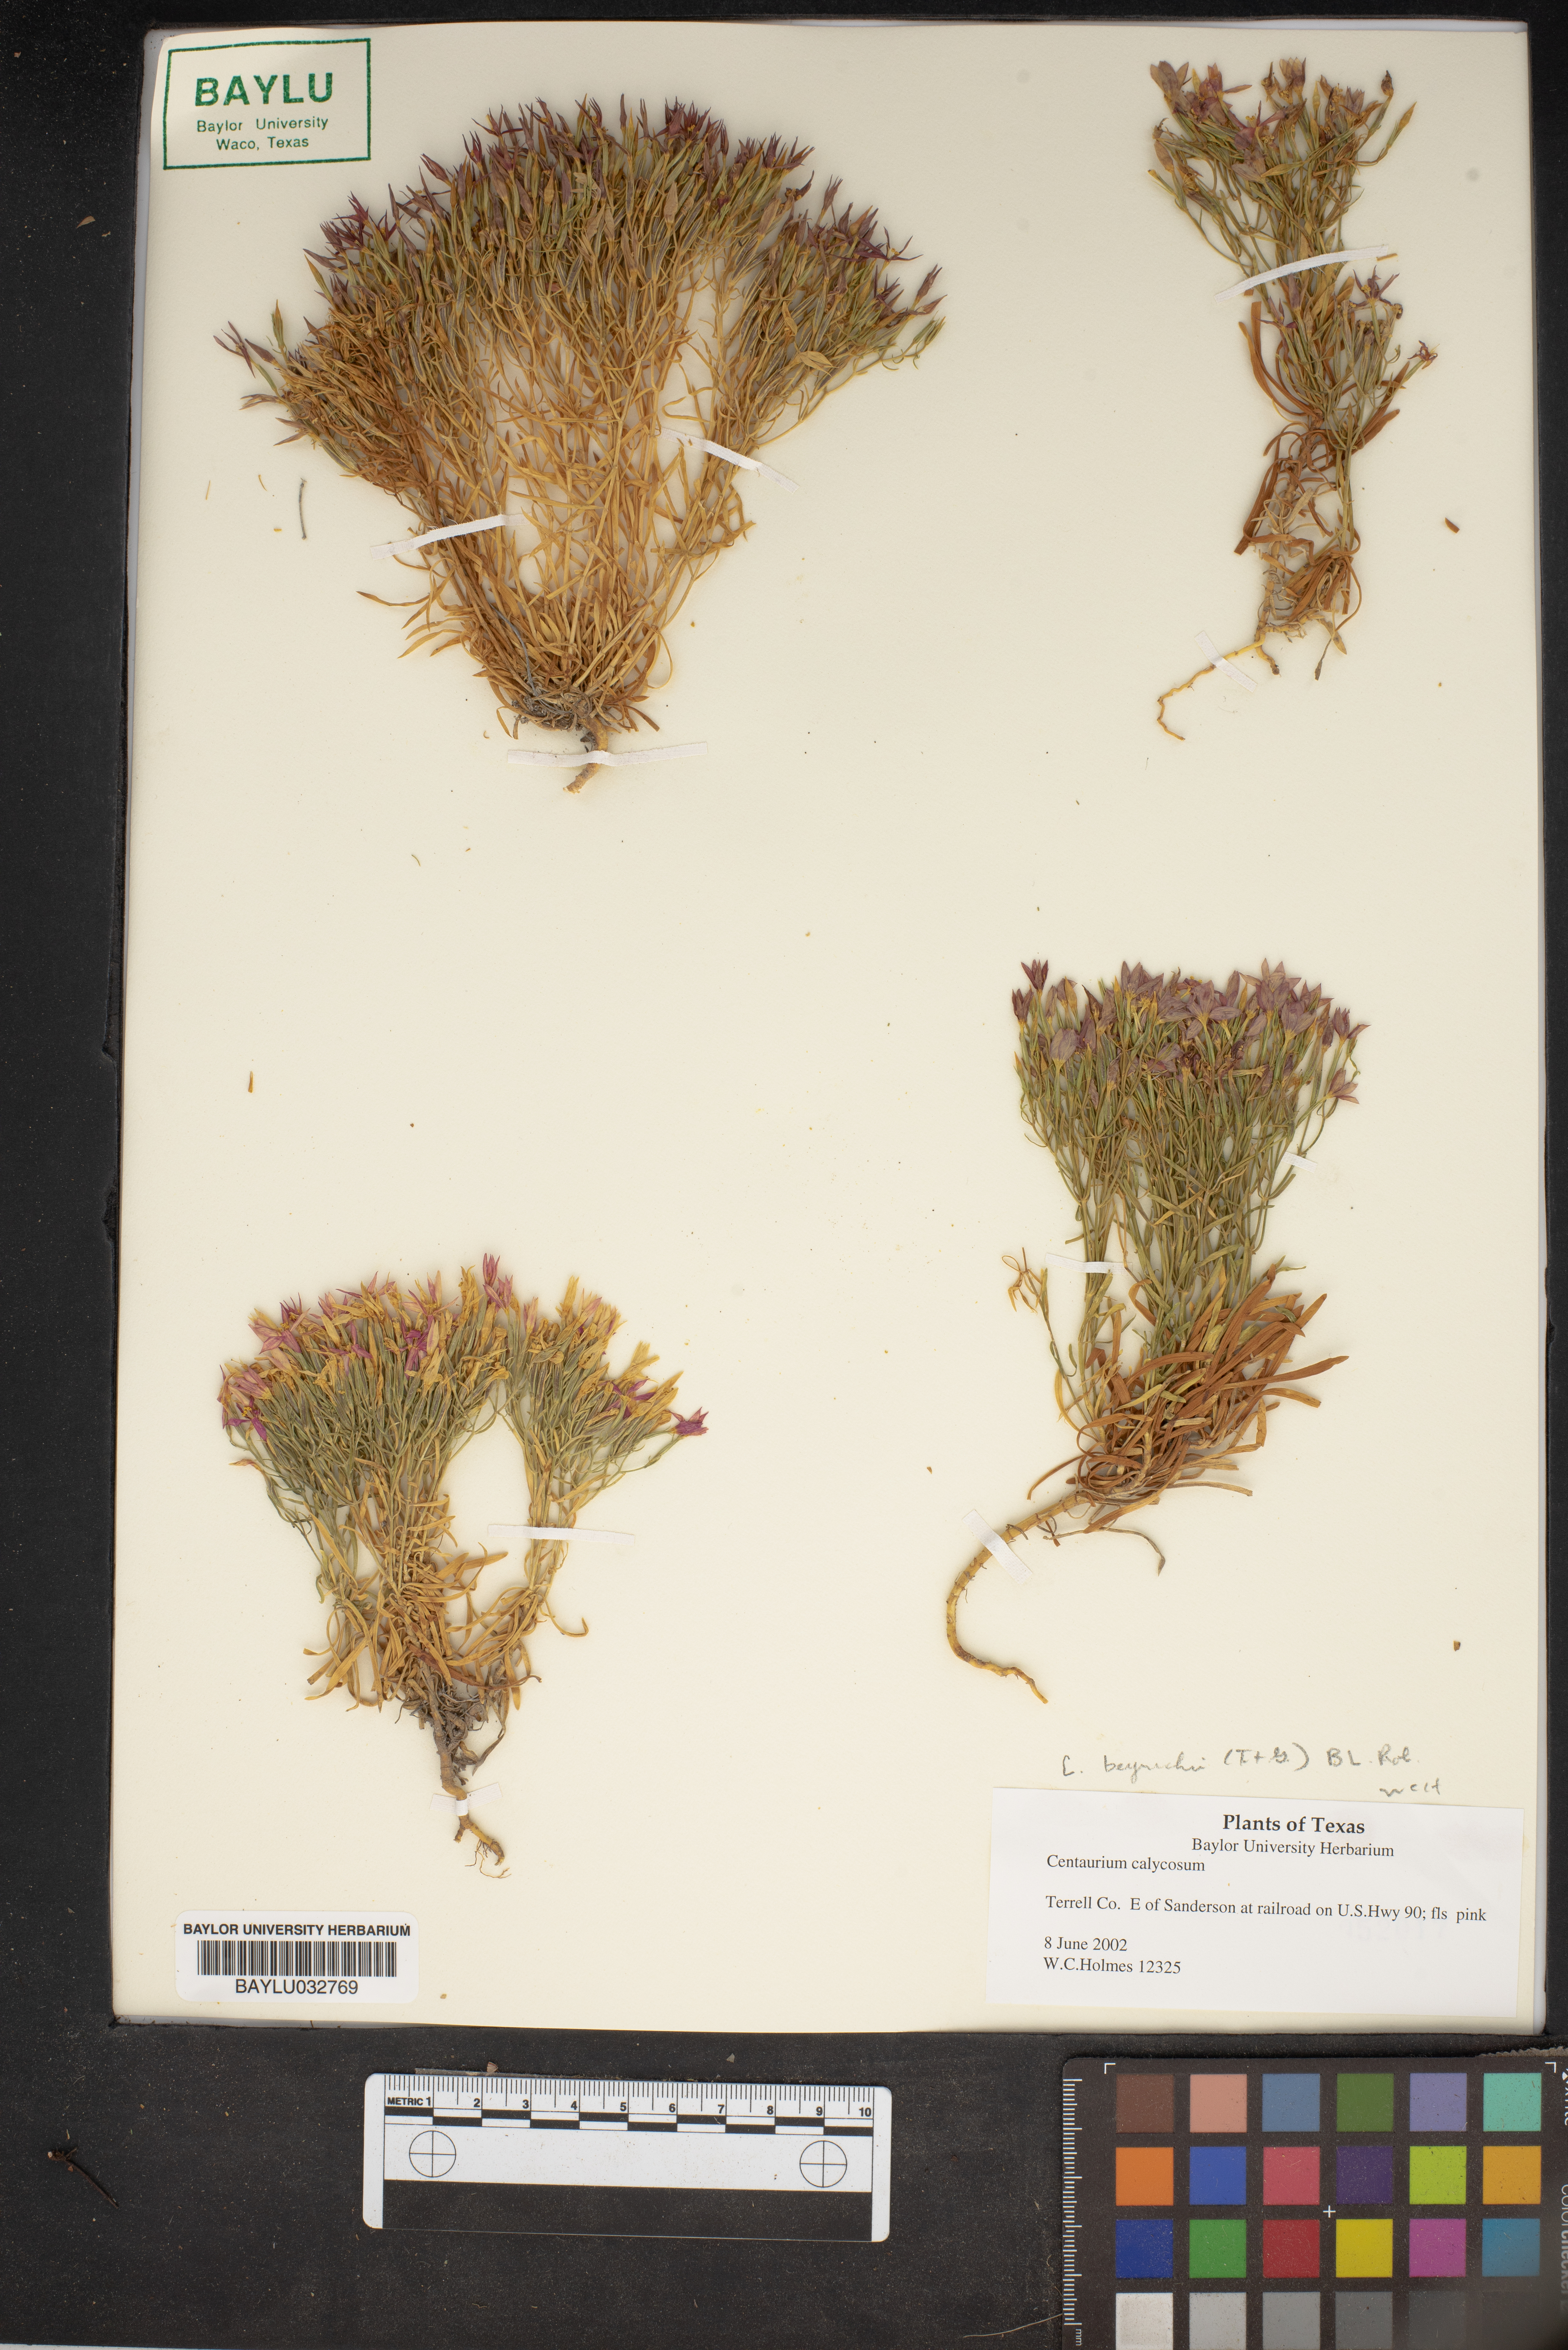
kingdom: Plantae
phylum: Tracheophyta
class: Magnoliopsida
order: Gentianales
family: Gentianaceae
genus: Zeltnera
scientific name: Zeltnera calycosa
